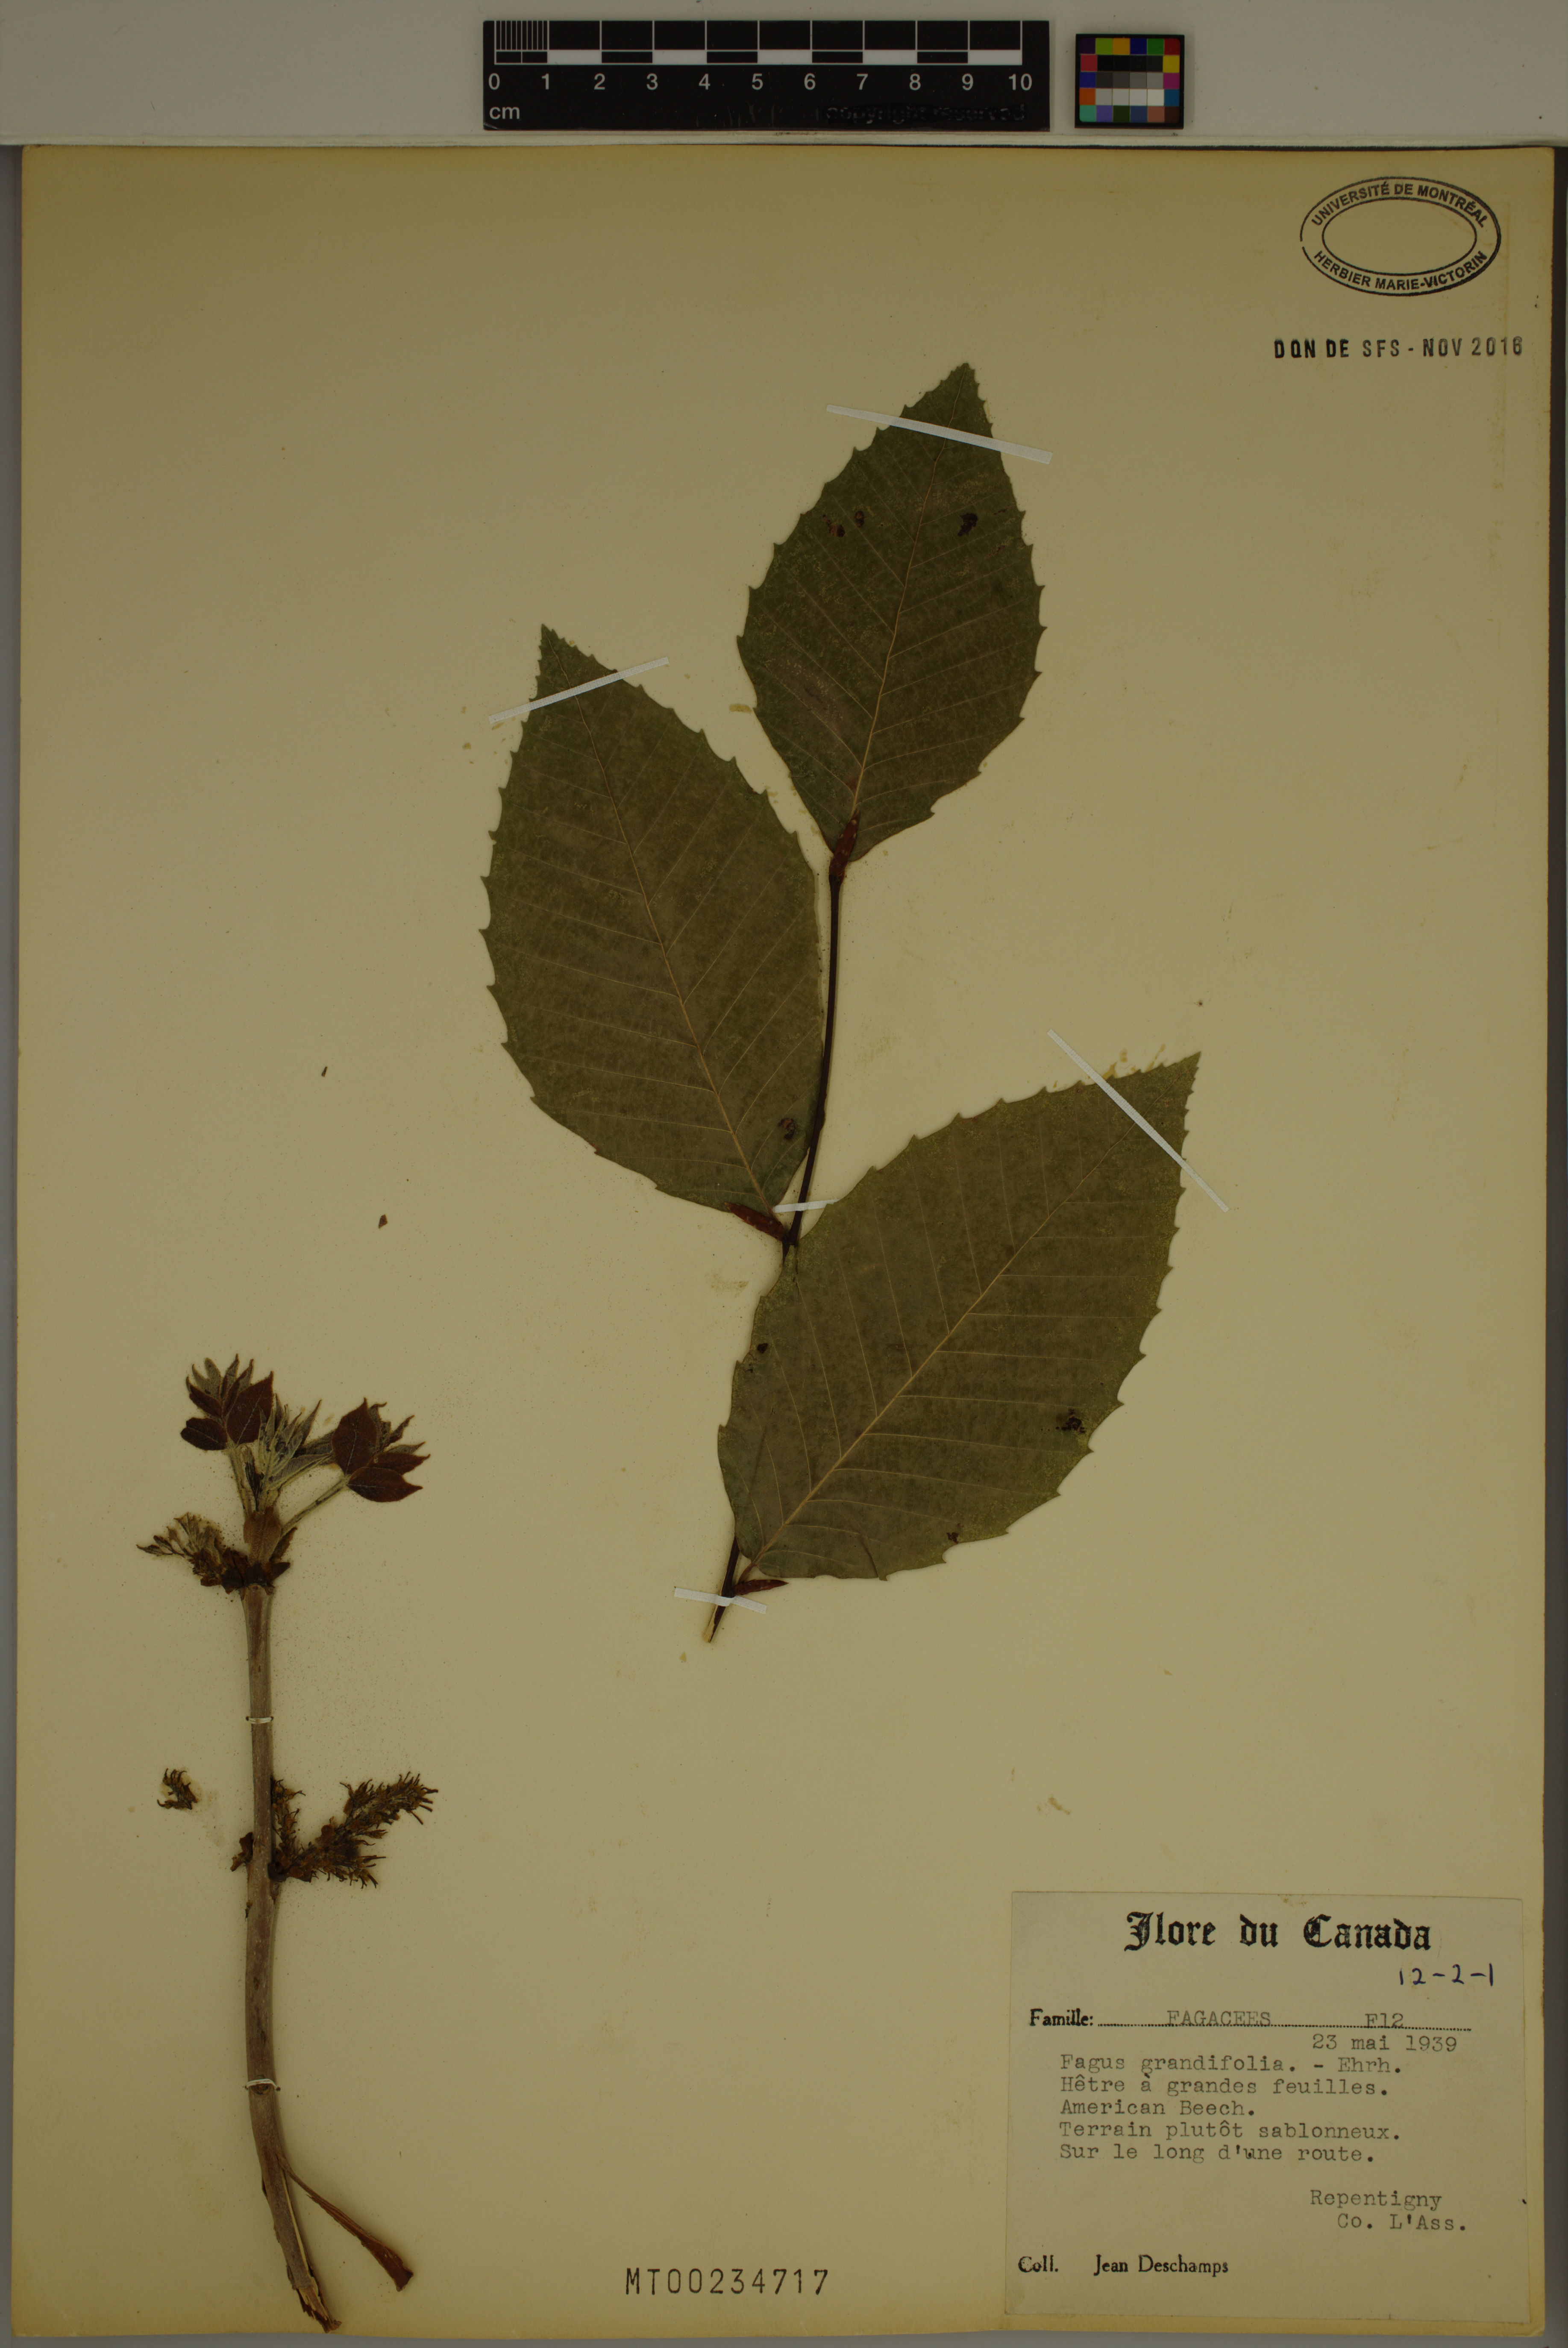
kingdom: Plantae
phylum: Tracheophyta
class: Magnoliopsida
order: Fagales
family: Fagaceae
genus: Fagus
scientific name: Fagus grandifolia
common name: American beech
